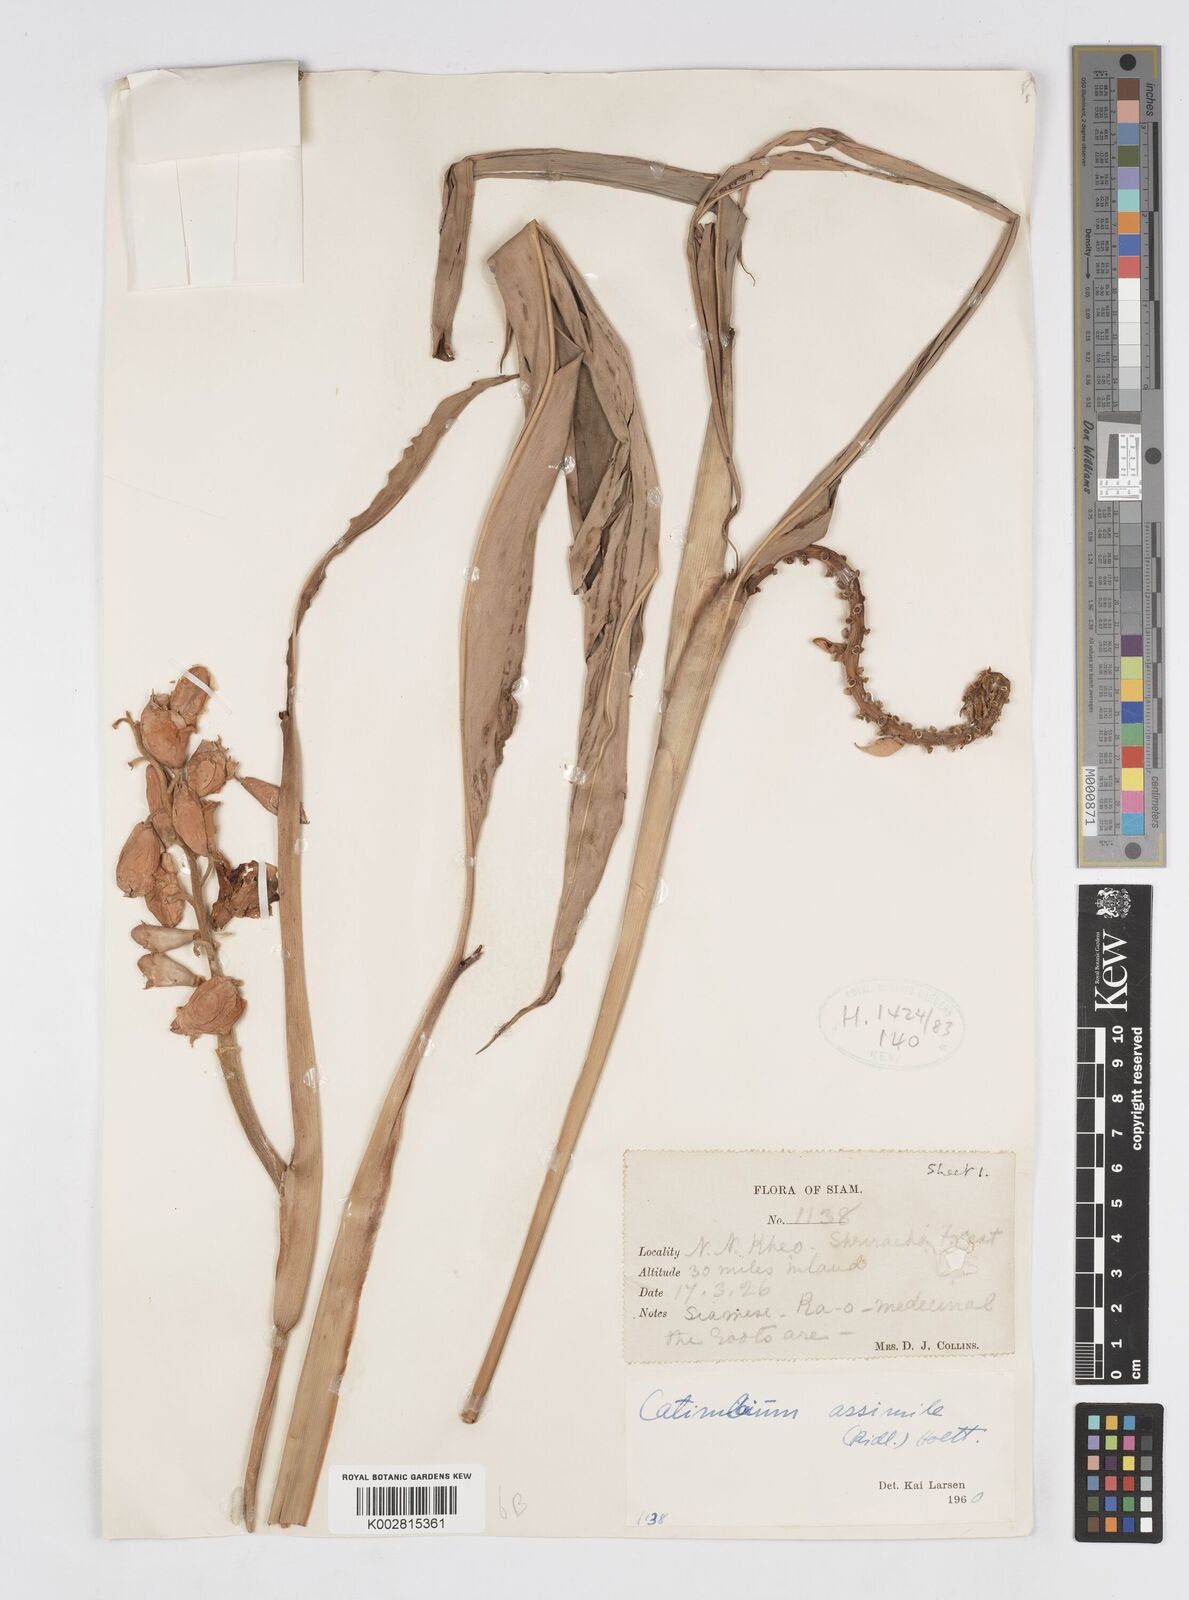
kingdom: Plantae
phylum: Tracheophyta
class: Liliopsida
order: Zingiberales
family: Zingiberaceae
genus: Alpinia
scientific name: Alpinia assimilis
